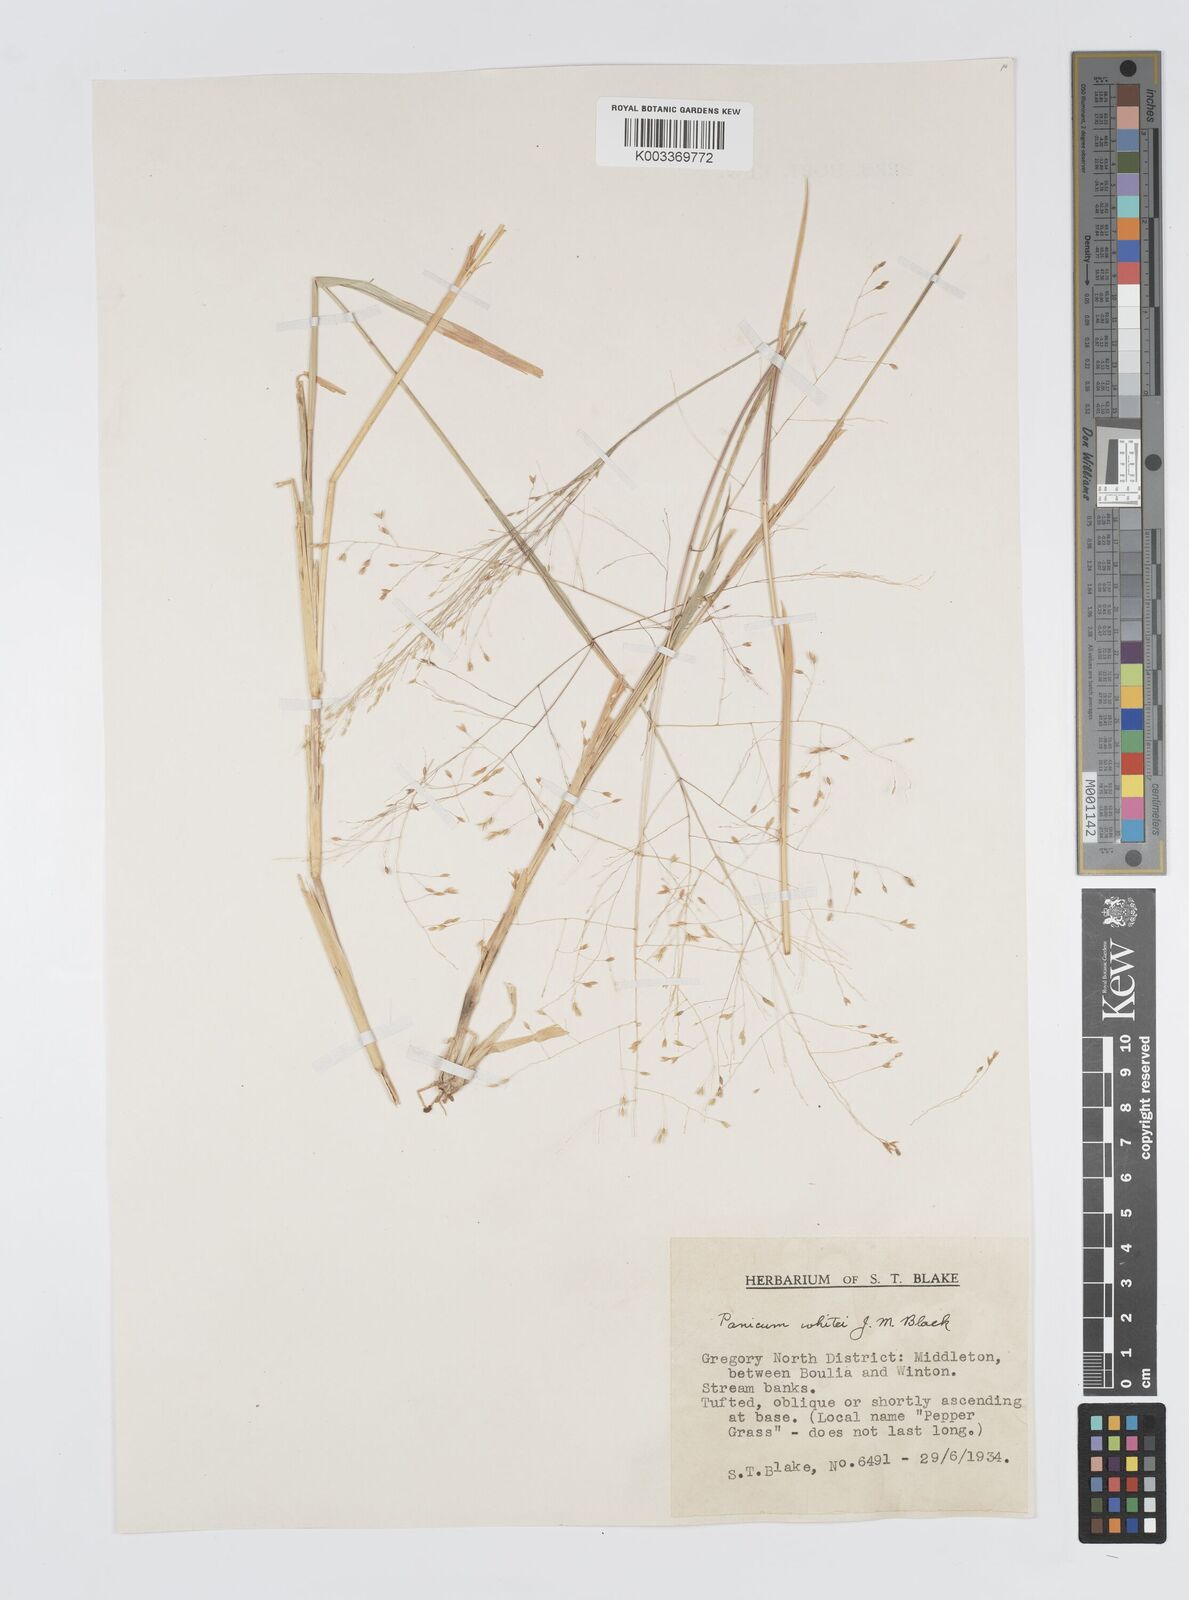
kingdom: Plantae
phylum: Tracheophyta
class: Liliopsida
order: Poales
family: Poaceae
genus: Panicum
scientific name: Panicum laevinode
